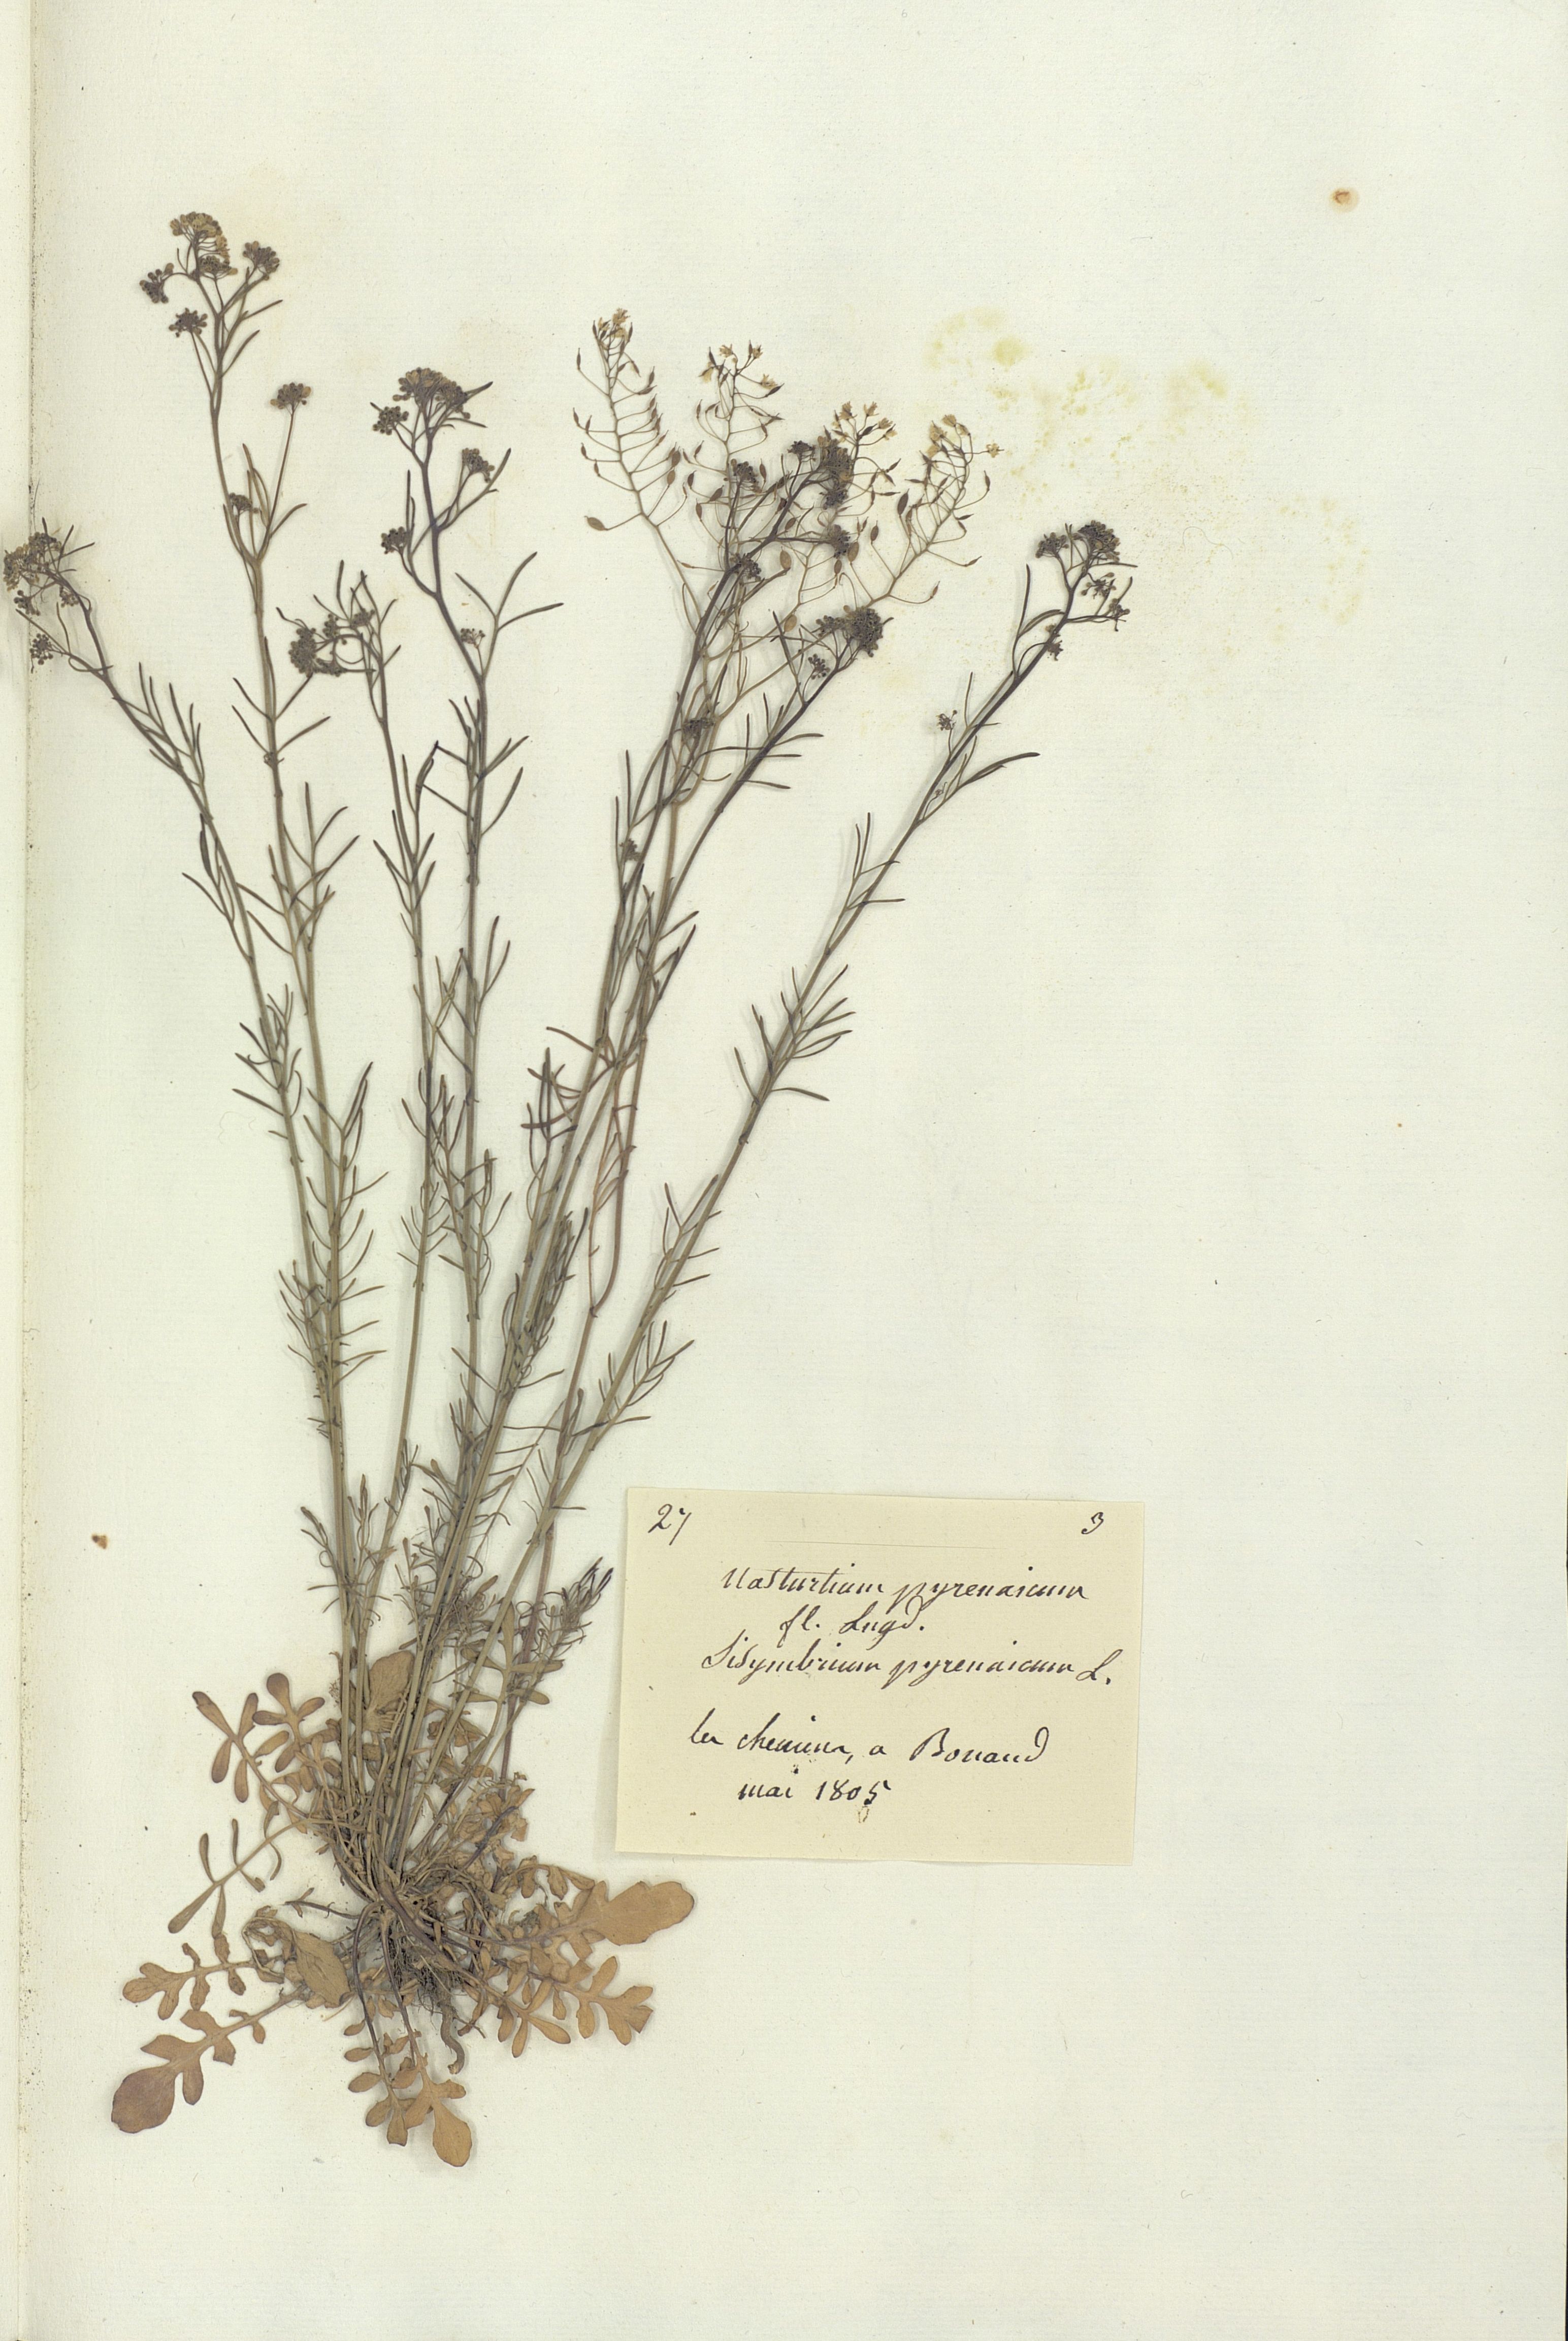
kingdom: Plantae
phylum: Tracheophyta
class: Magnoliopsida
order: Brassicales
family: Brassicaceae
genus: Nasturtium
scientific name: Nasturtium pyrenaicum
